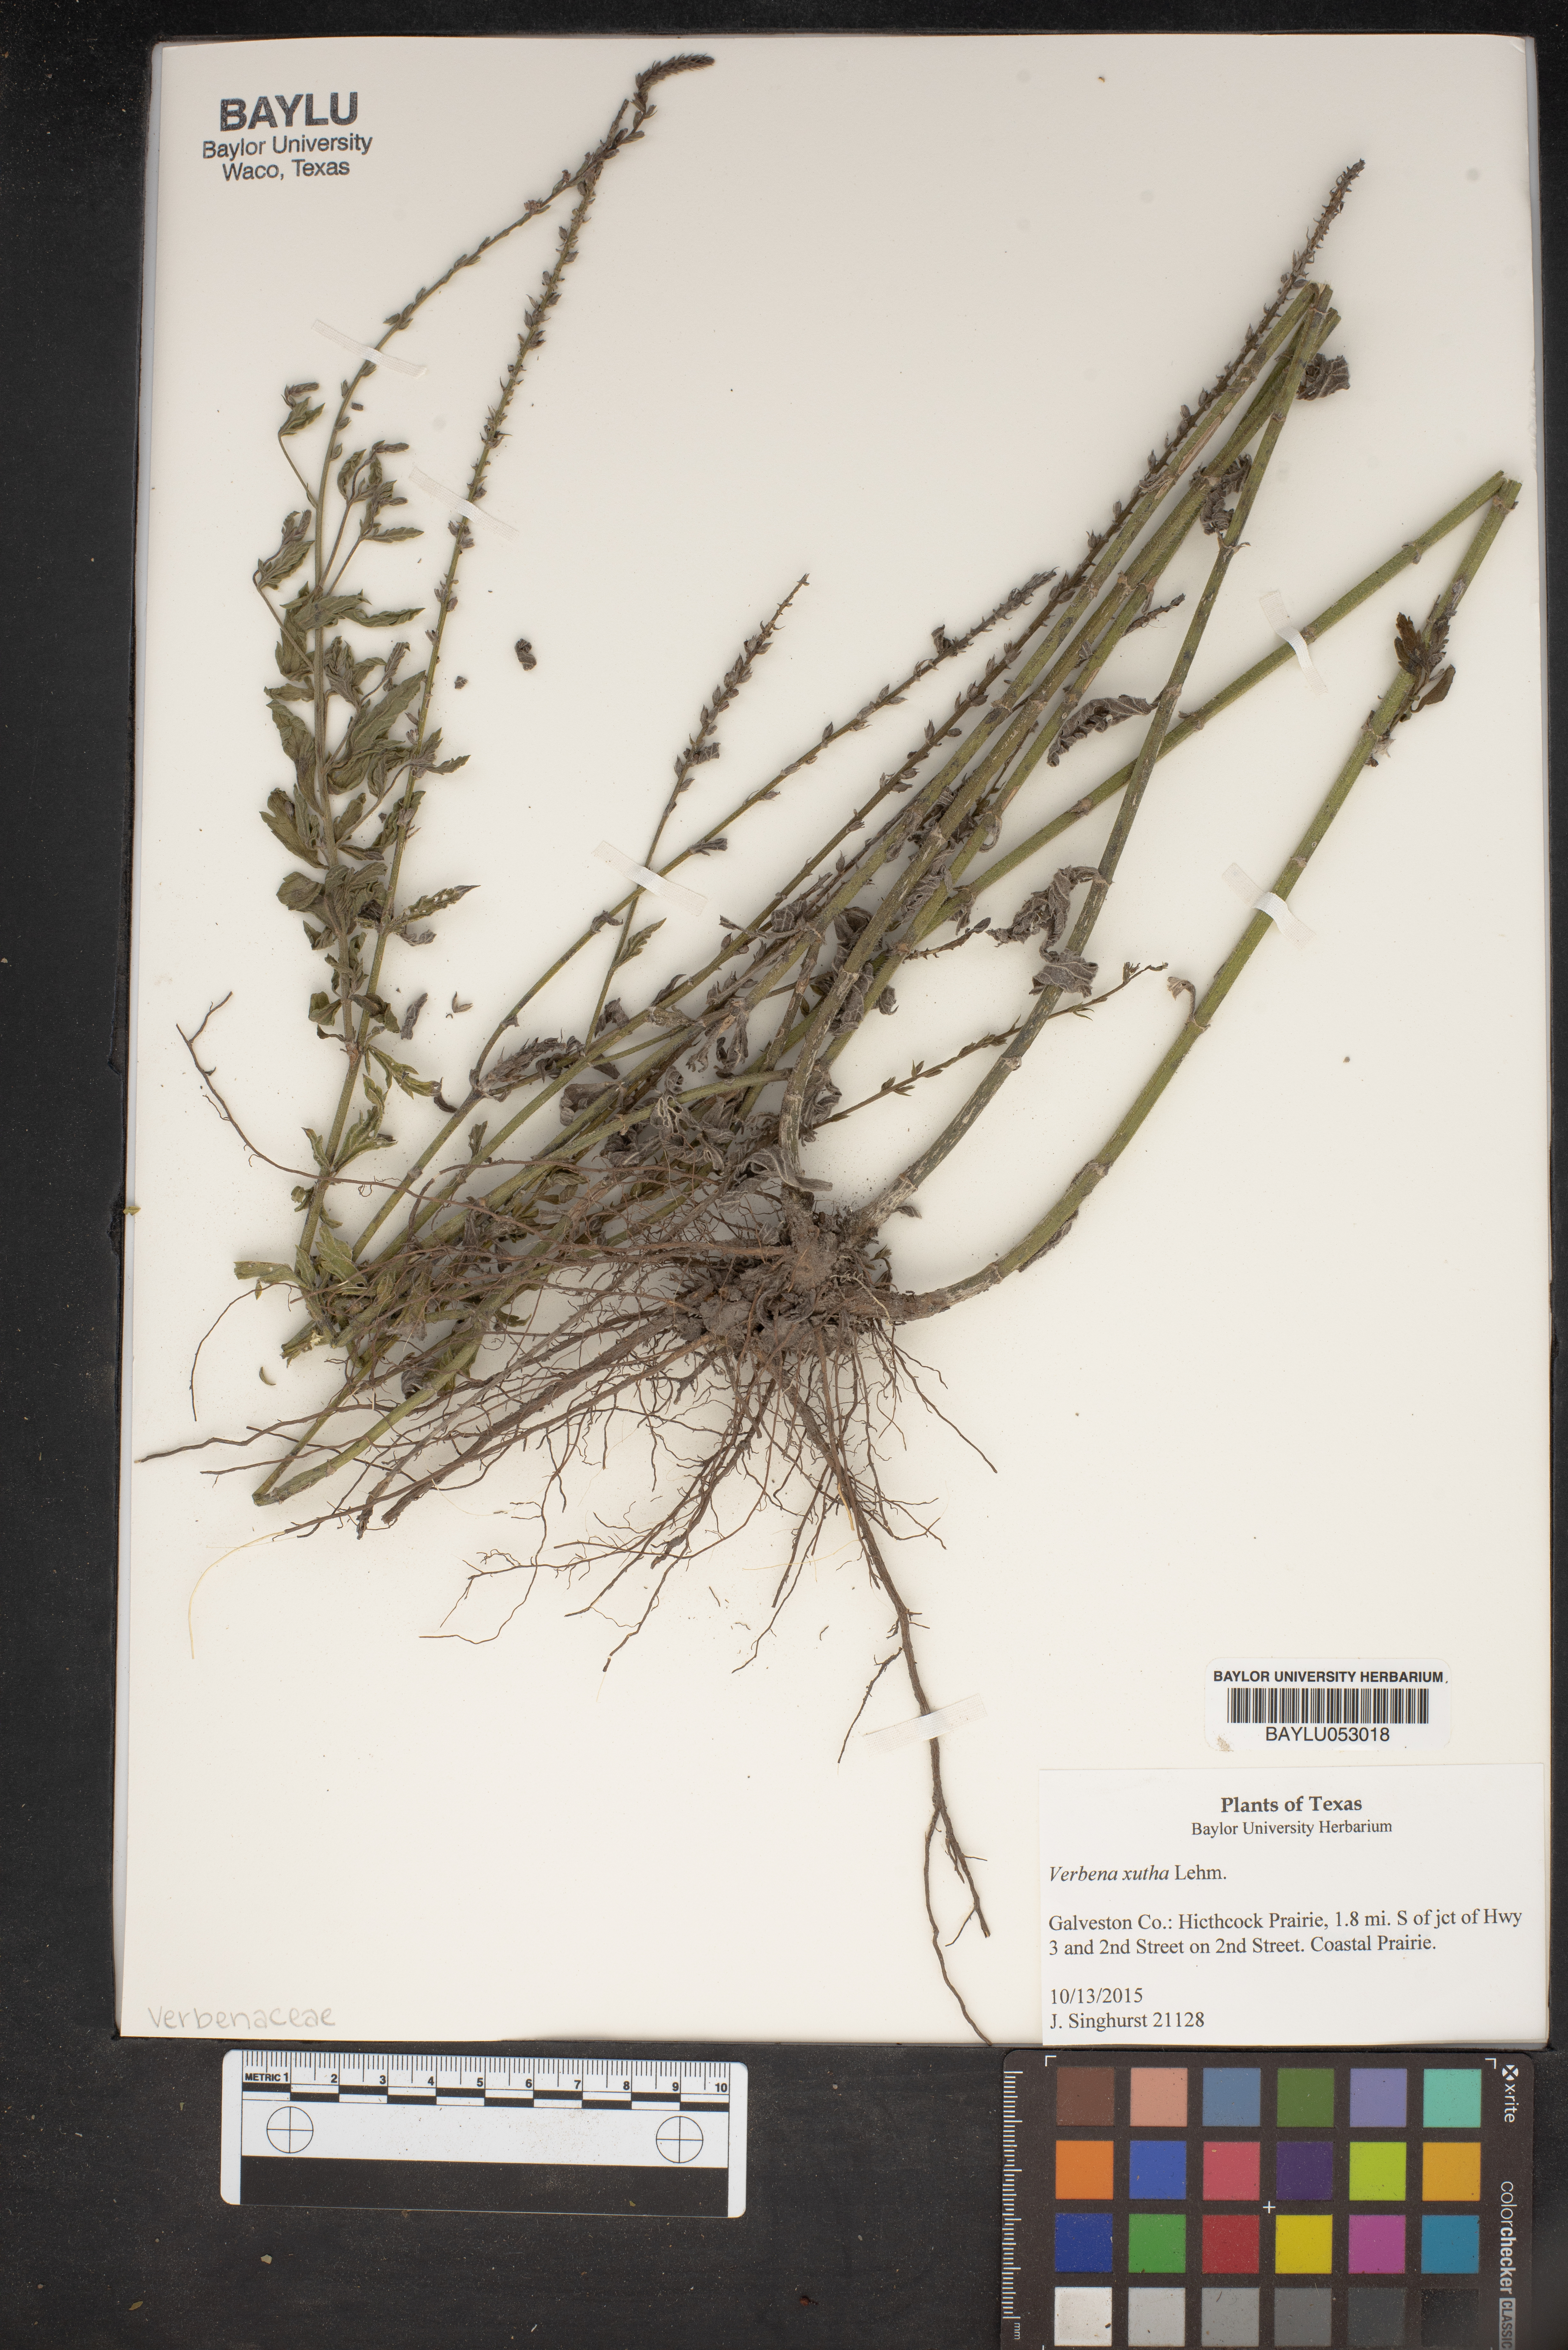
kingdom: Plantae
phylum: Tracheophyta
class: Magnoliopsida
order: Lamiales
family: Verbenaceae
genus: Verbena
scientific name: Verbena xutha
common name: Gulf vervain
